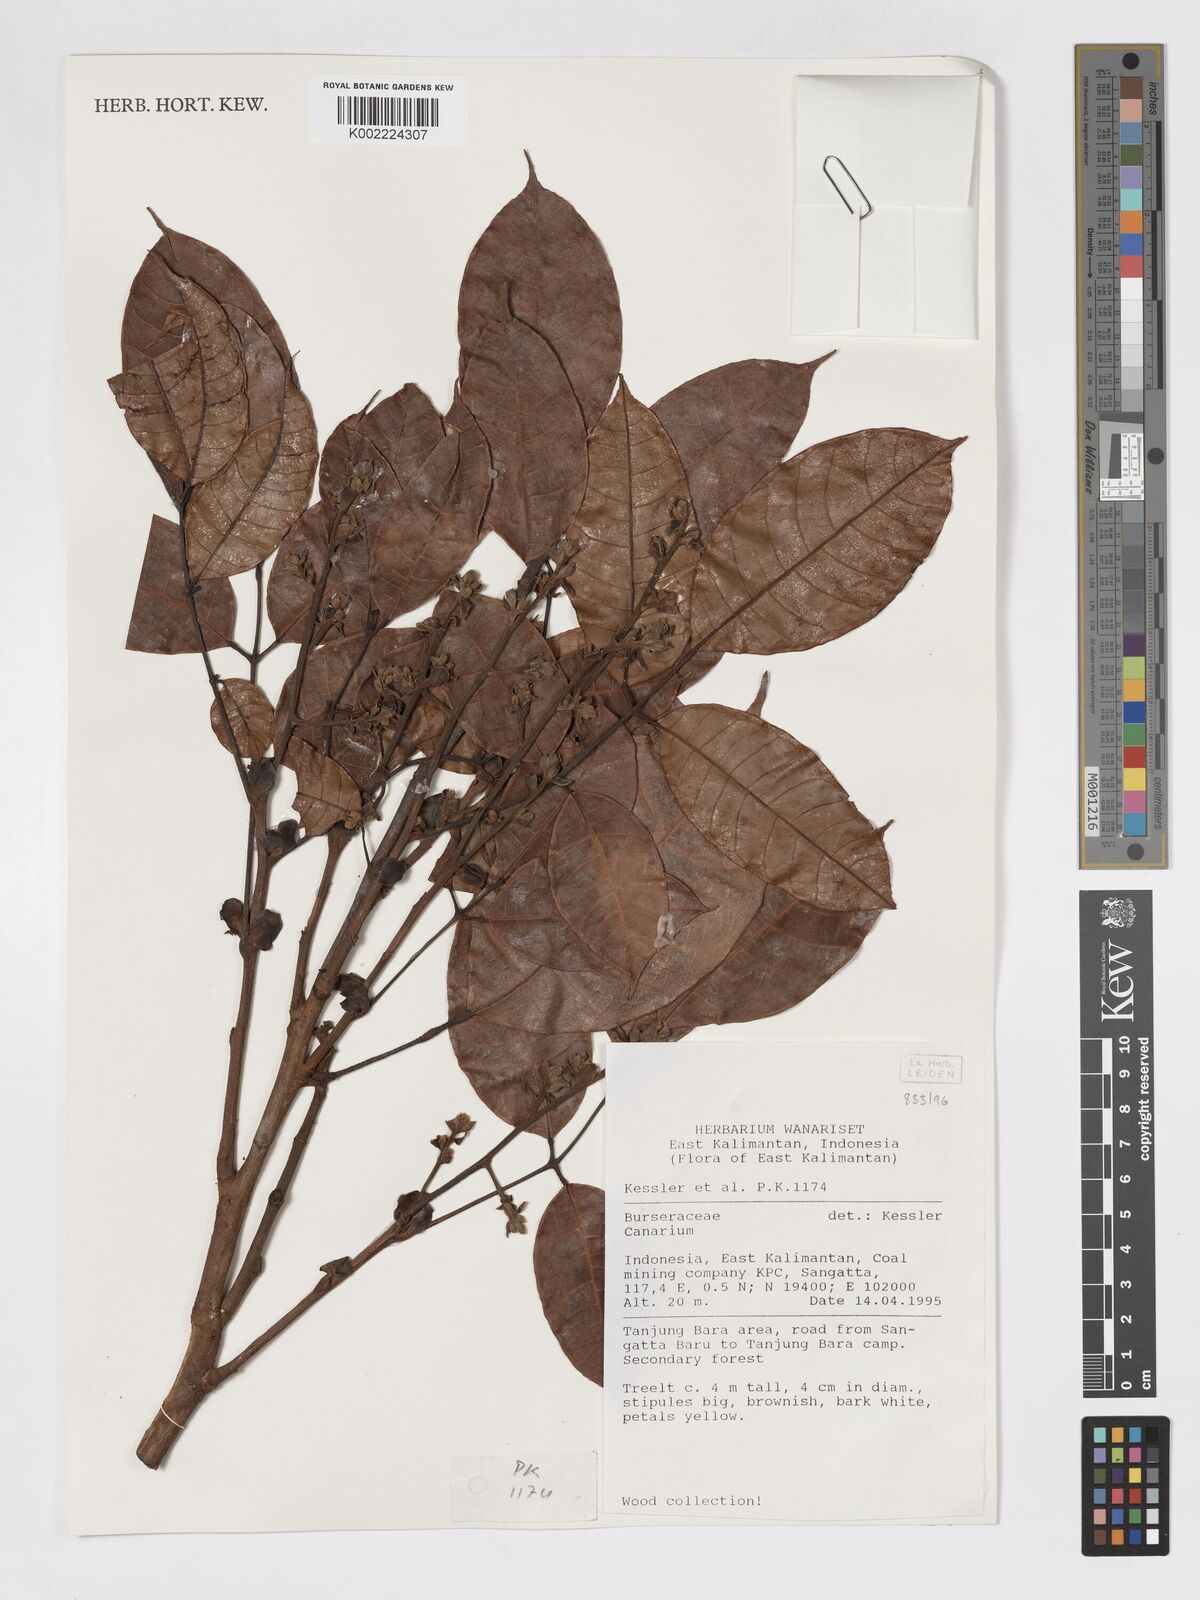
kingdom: Plantae
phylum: Tracheophyta
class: Magnoliopsida
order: Sapindales
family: Burseraceae
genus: Canarium
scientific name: Canarium
